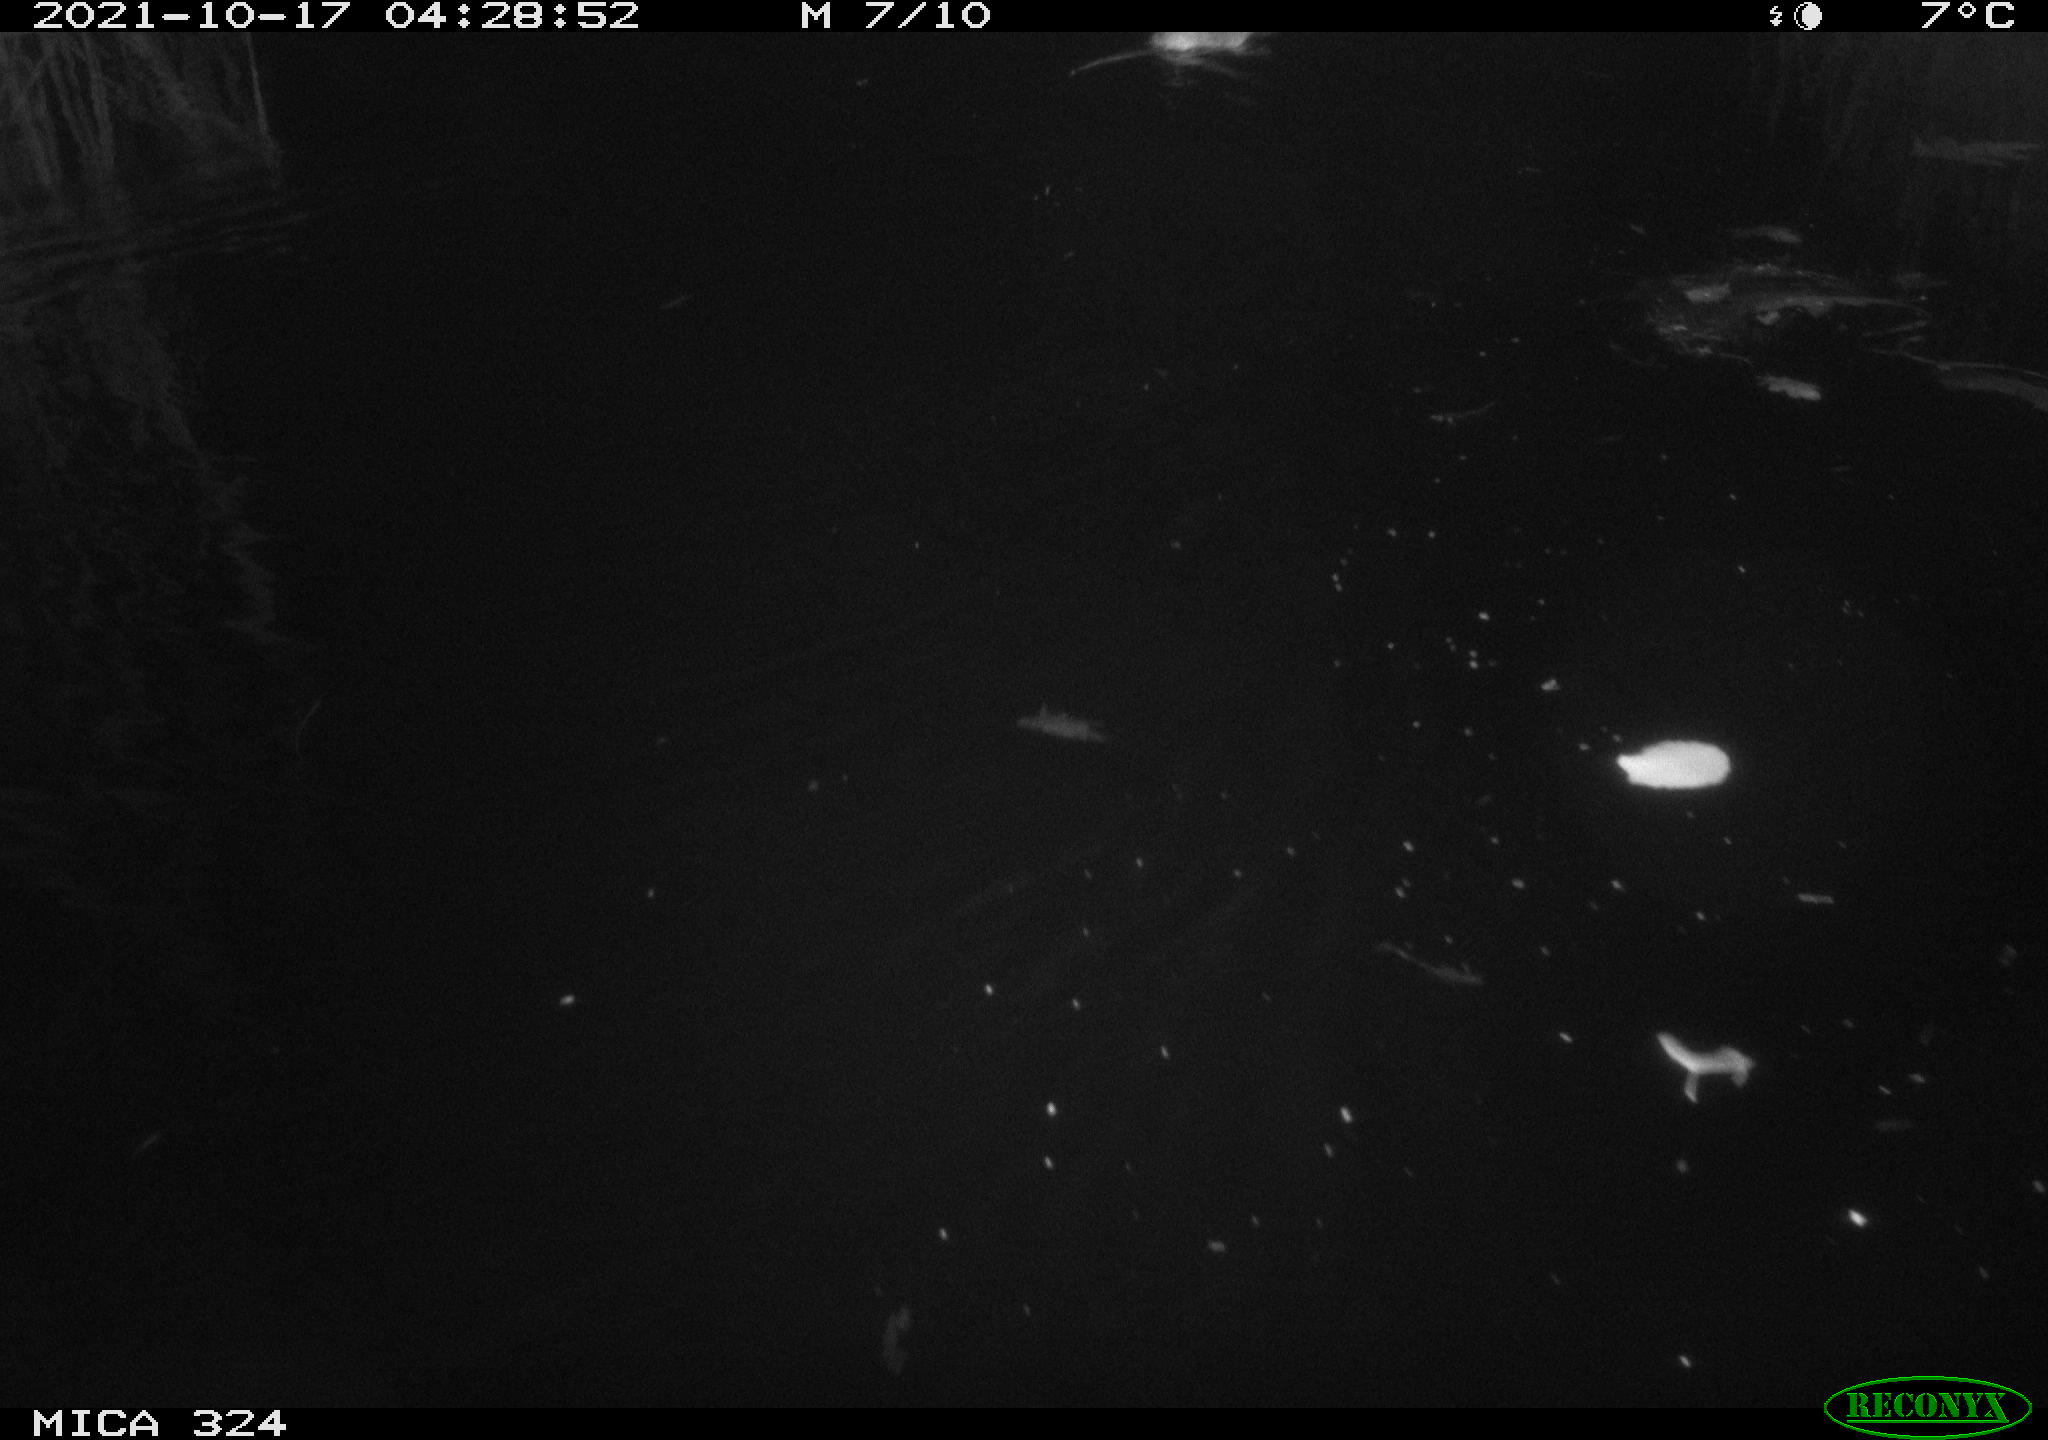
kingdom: Animalia
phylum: Chordata
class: Mammalia
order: Rodentia
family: Cricetidae
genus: Ondatra
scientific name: Ondatra zibethicus
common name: Muskrat
